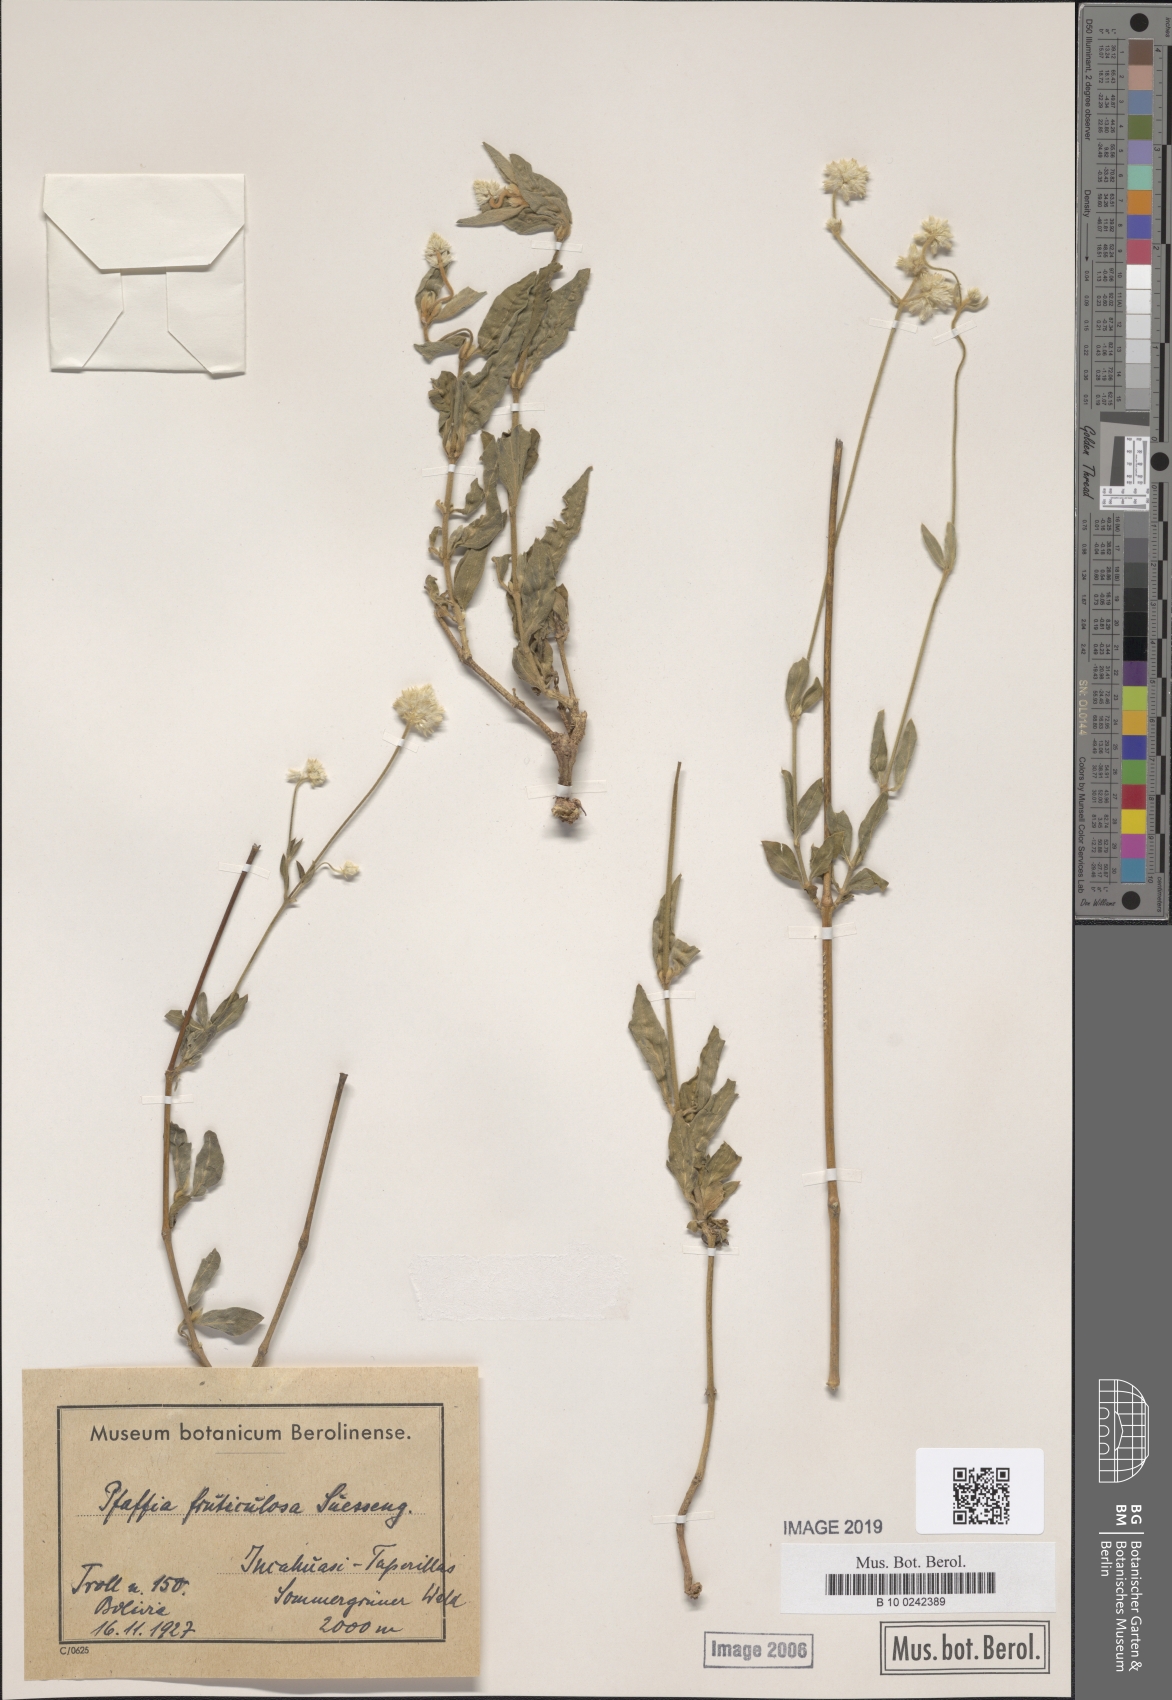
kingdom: Plantae
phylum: Tracheophyta
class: Magnoliopsida
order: Caryophyllales
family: Amaranthaceae
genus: Pfaffia
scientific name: Pfaffia fruticulosa
